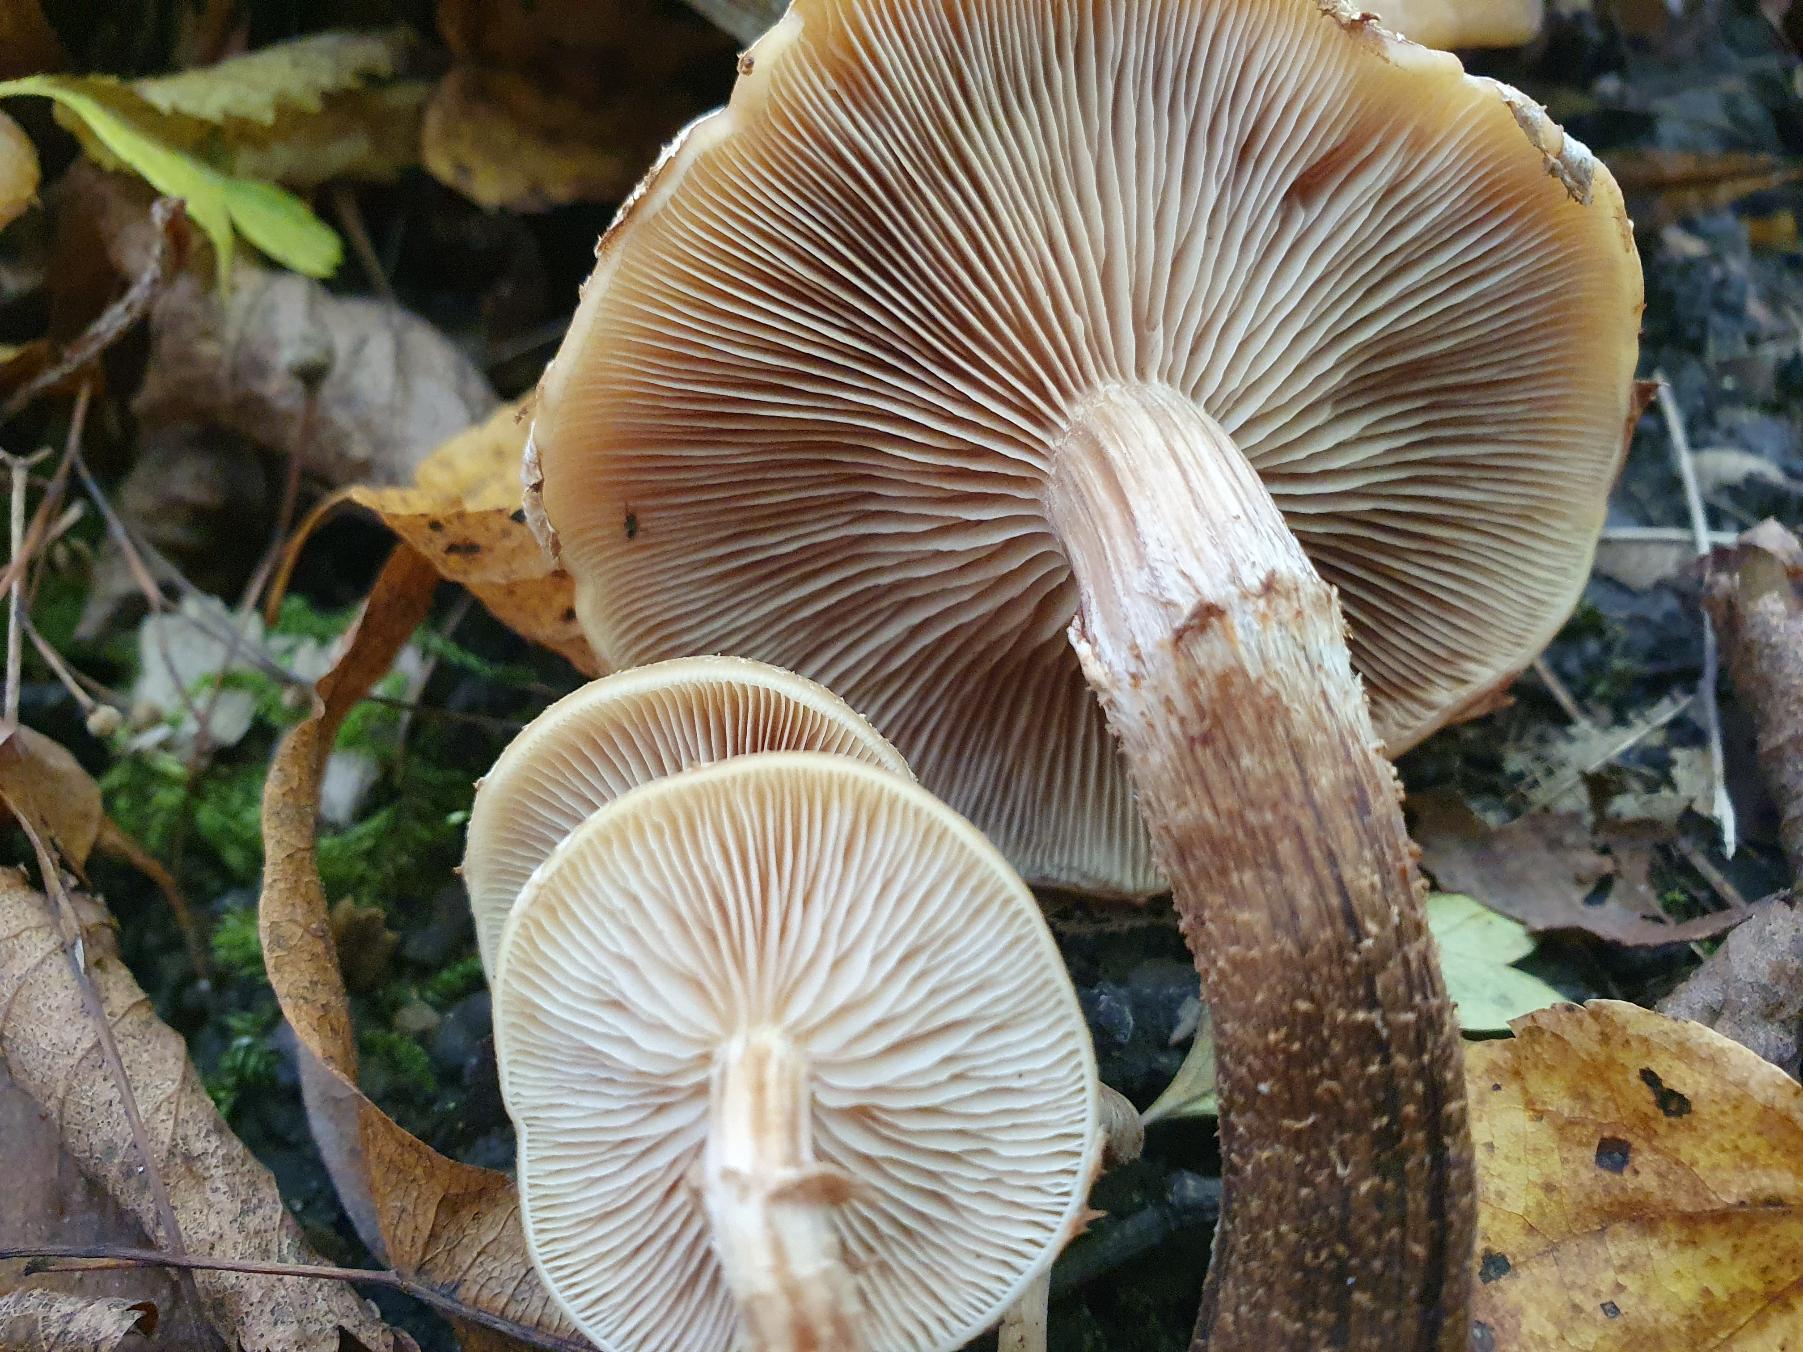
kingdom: Fungi
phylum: Basidiomycota
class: Agaricomycetes
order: Agaricales
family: Strophariaceae
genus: Kuehneromyces
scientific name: Kuehneromyces mutabilis
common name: Foranderlig skælhat
